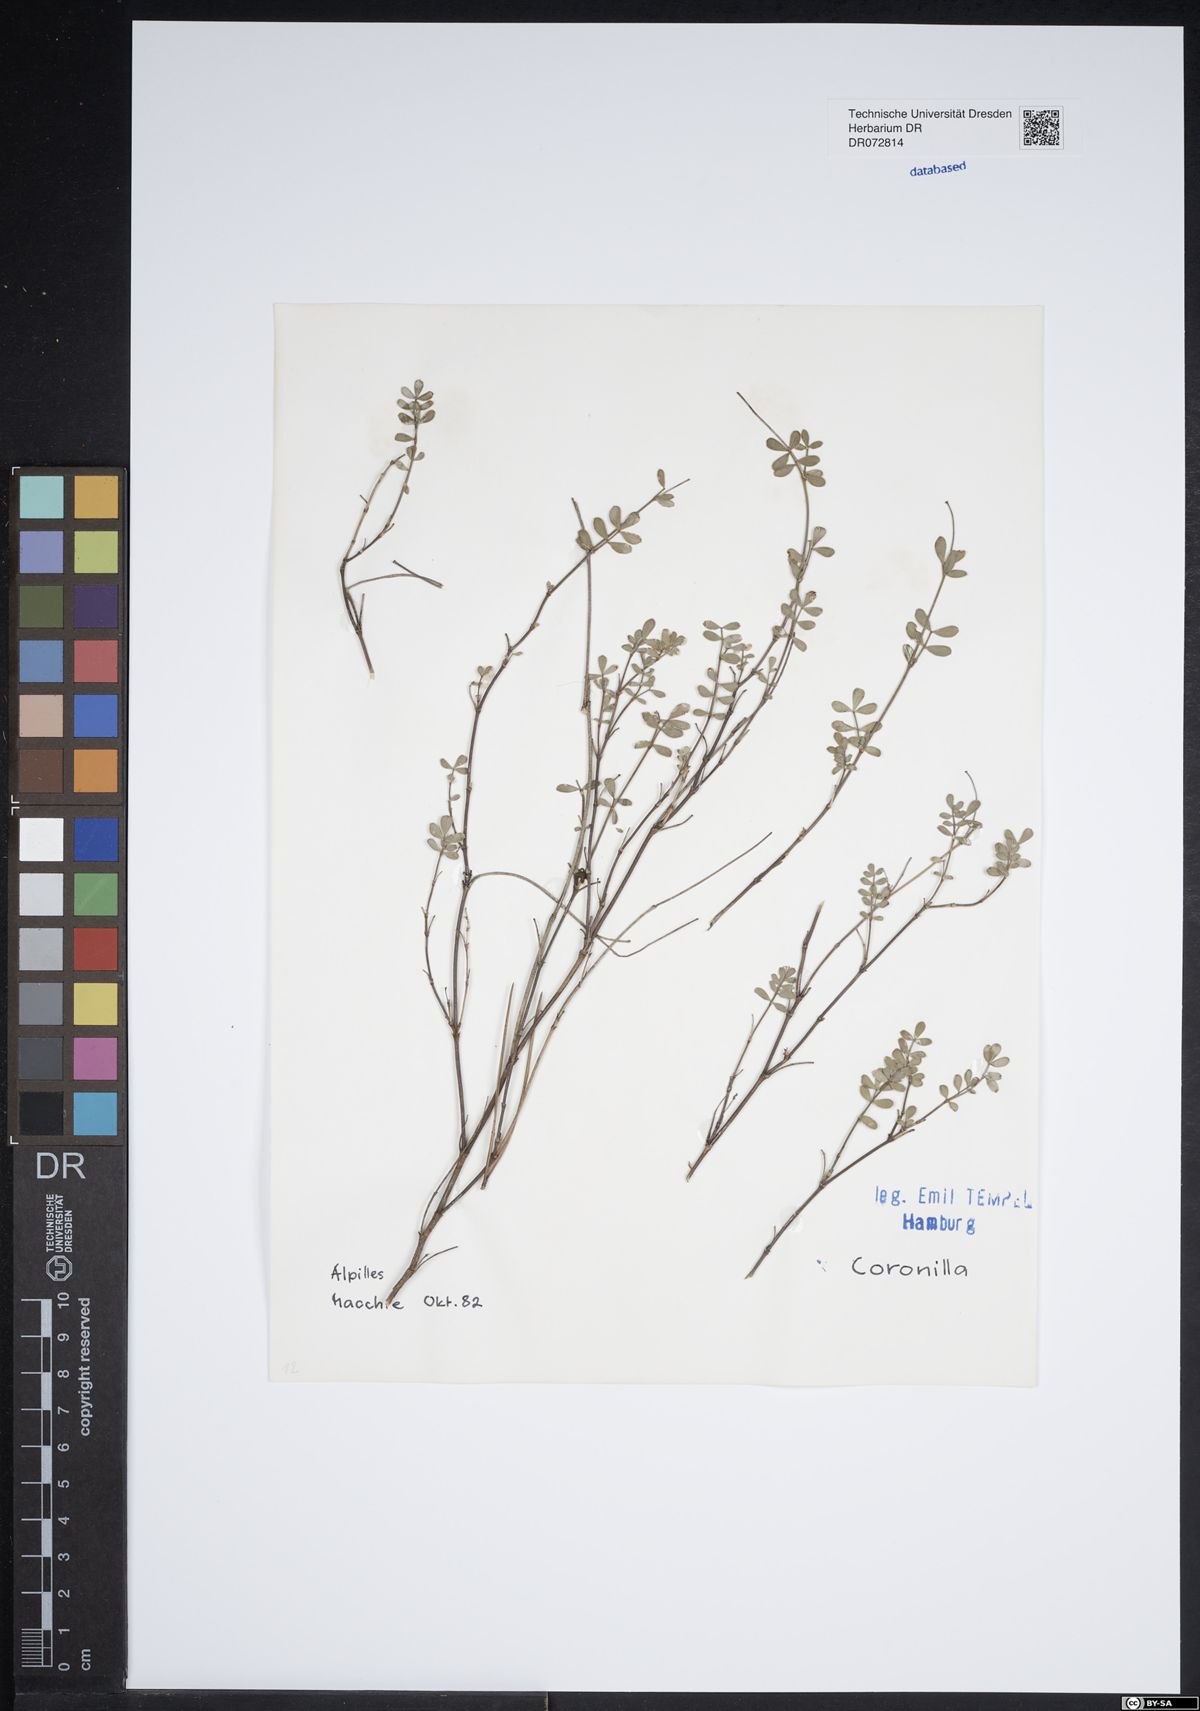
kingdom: Plantae
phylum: Tracheophyta
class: Magnoliopsida
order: Fabales
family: Fabaceae
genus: Coronilla
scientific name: Coronilla
